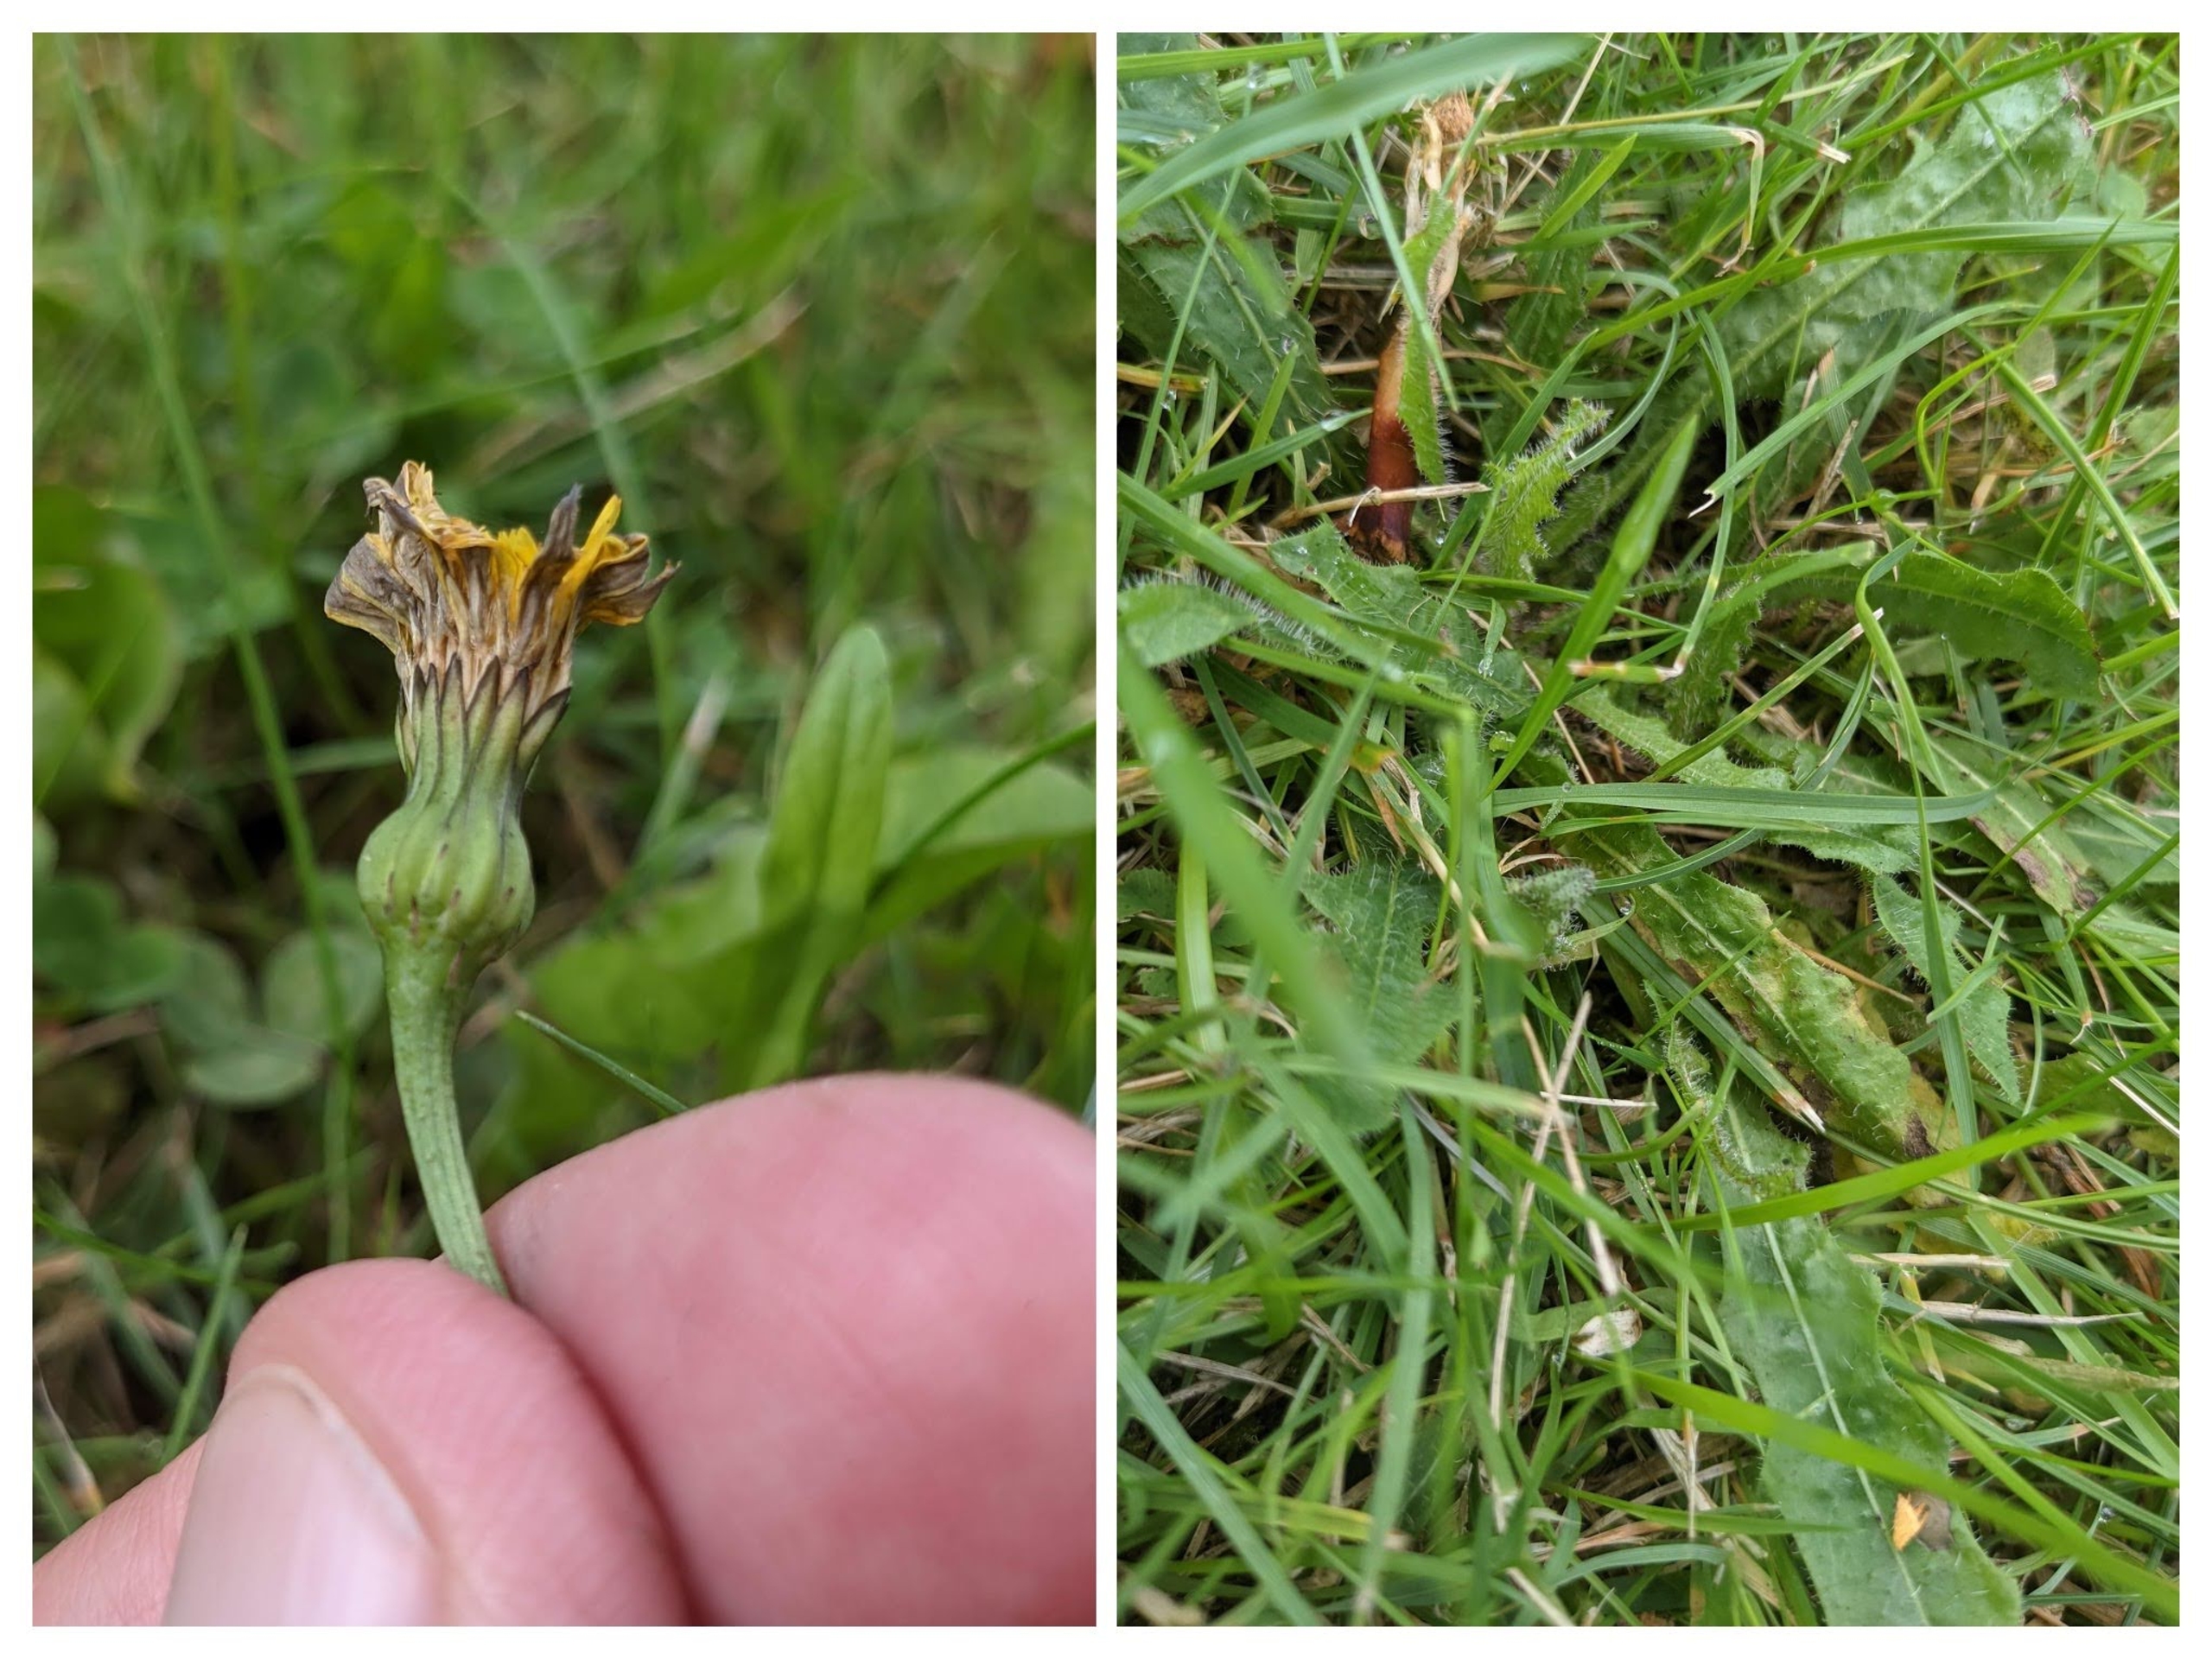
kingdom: Plantae
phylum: Tracheophyta
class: Magnoliopsida
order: Asterales
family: Asteraceae
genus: Thrincia
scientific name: Thrincia saxatilis
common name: Hundesalat
